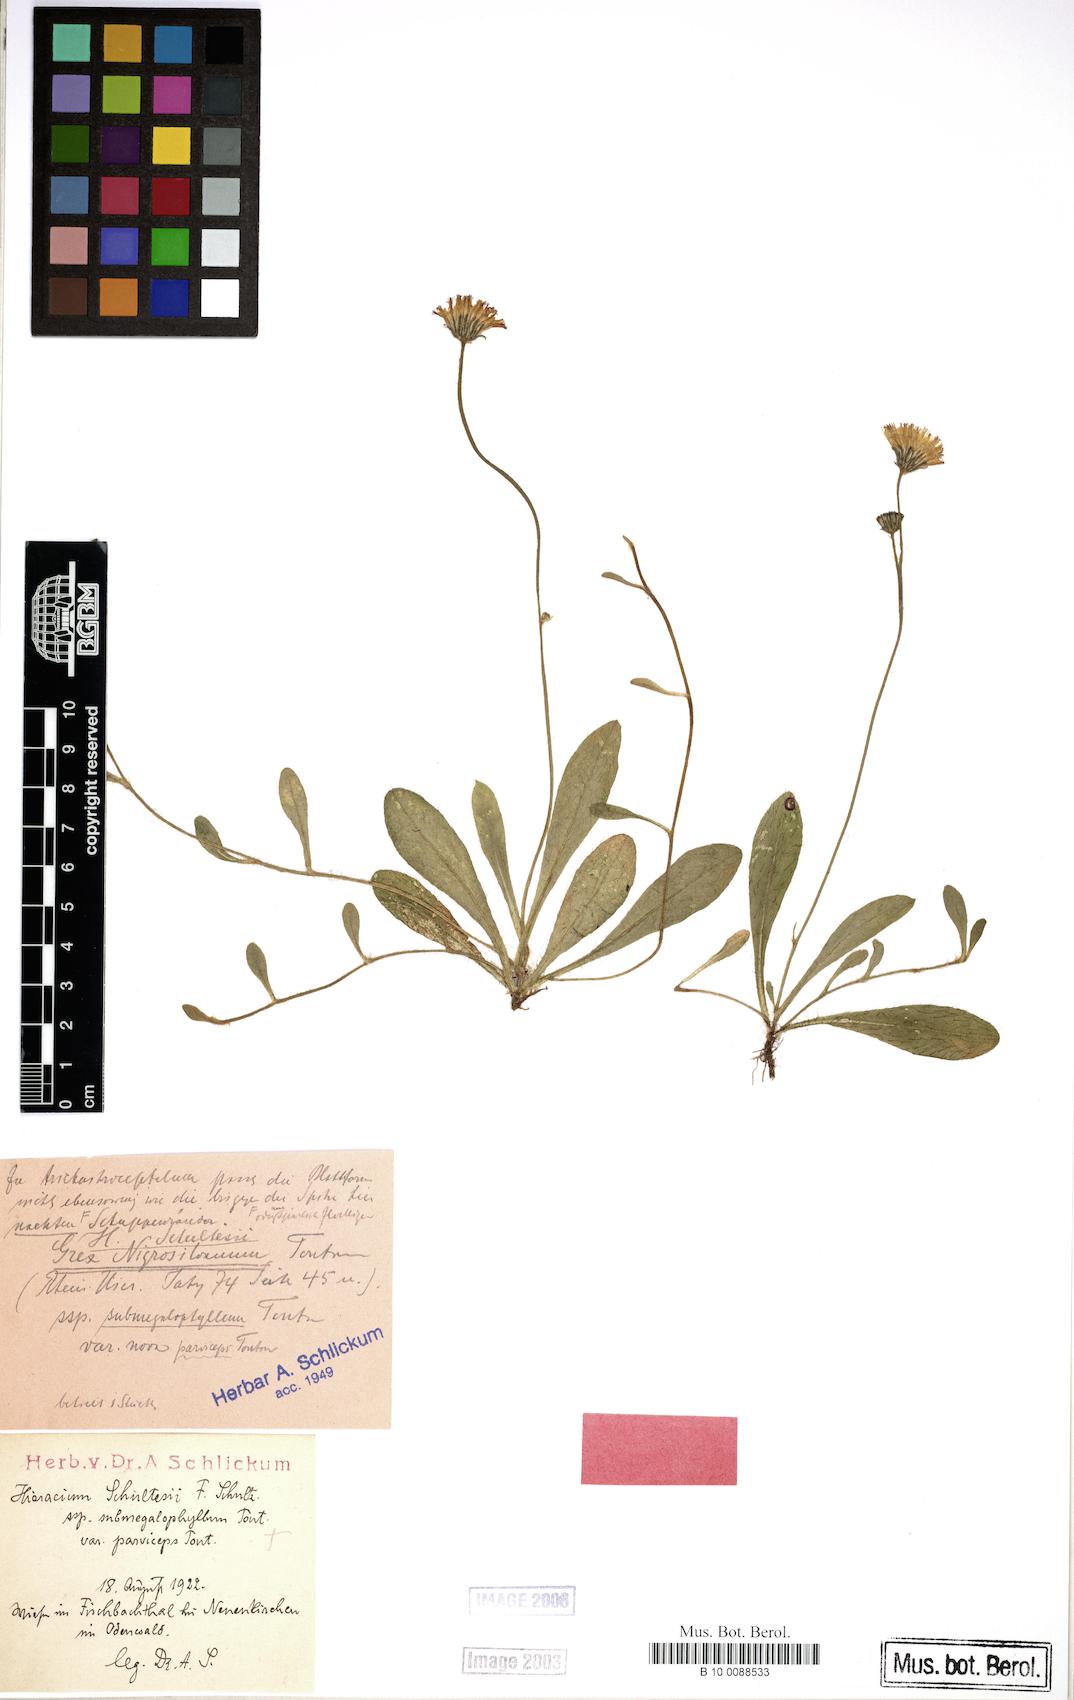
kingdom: Plantae
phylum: Tracheophyta
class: Magnoliopsida
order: Asterales
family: Asteraceae
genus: Pilosella
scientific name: Pilosella schultesii
